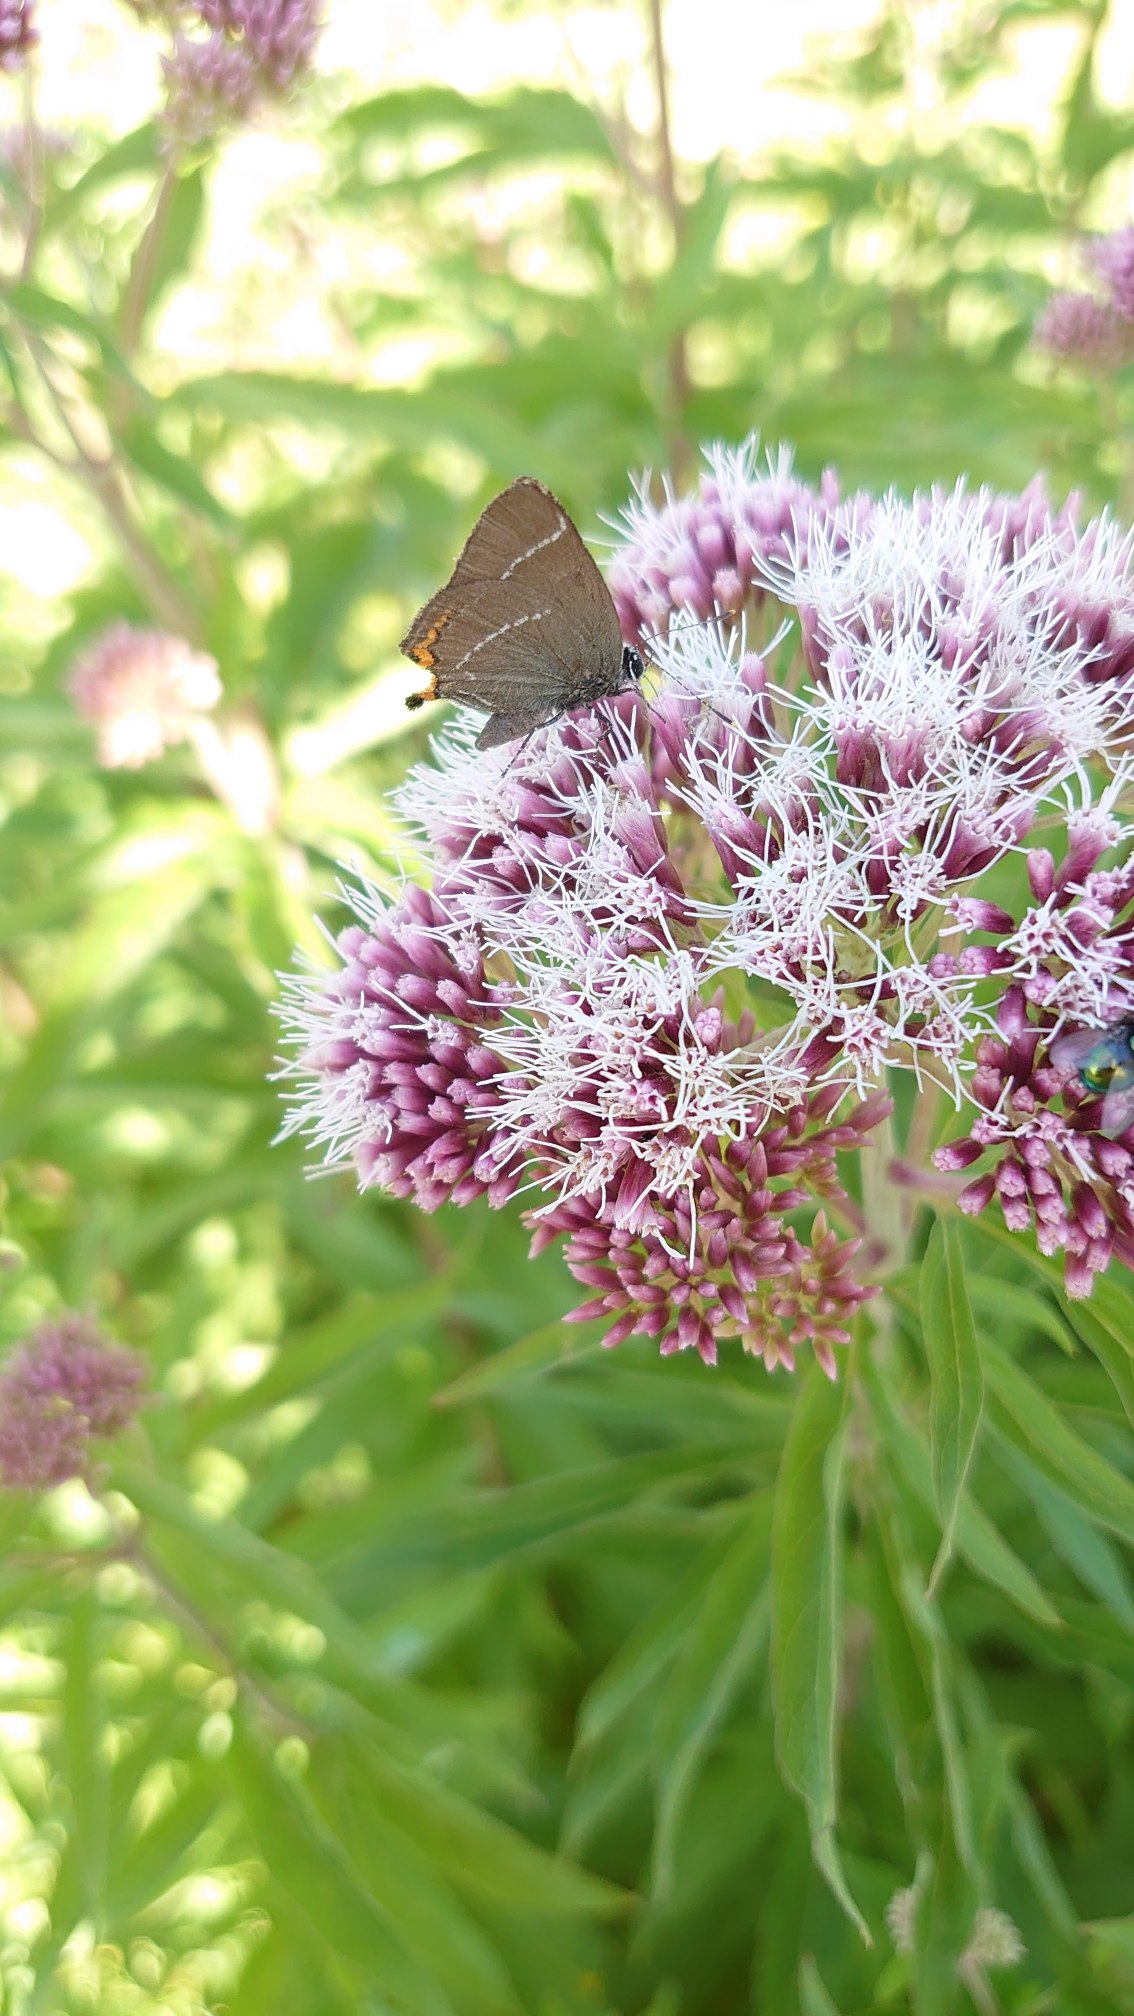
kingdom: Animalia
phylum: Arthropoda
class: Insecta
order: Lepidoptera
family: Lycaenidae
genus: Satyrium
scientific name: Satyrium w-album
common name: Det hvide W
